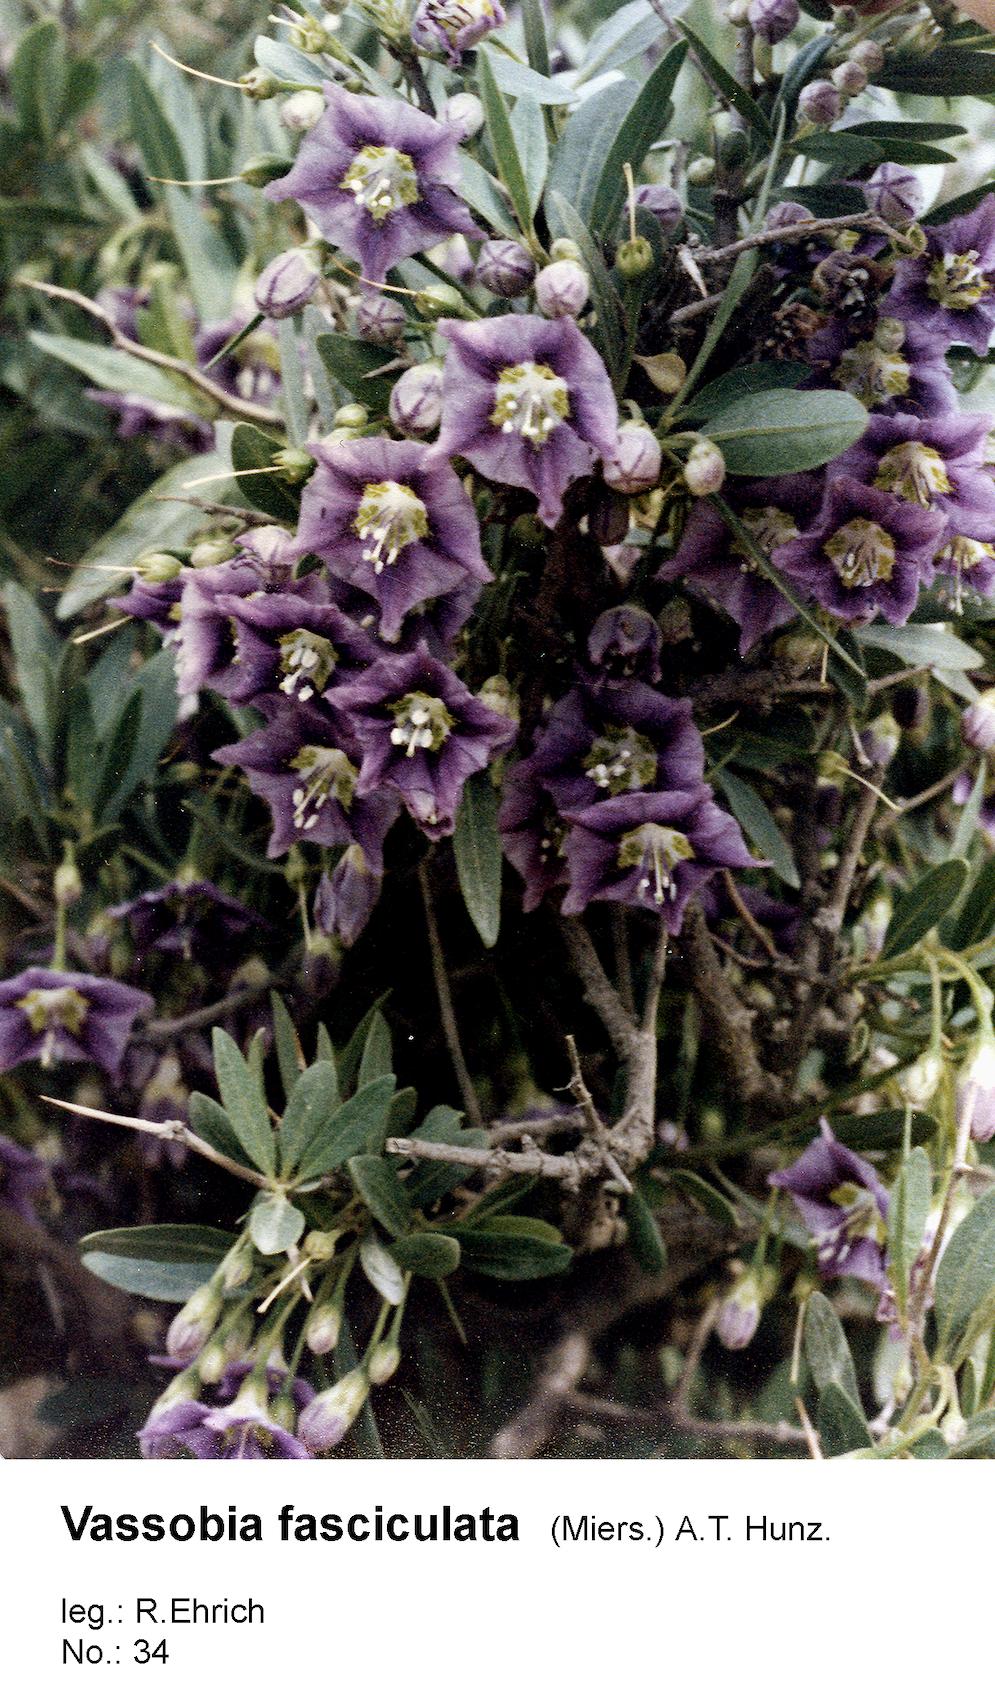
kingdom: Plantae
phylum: Tracheophyta
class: Magnoliopsida
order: Solanales
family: Solanaceae
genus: Eriolarynx
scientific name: Eriolarynx fasciculata
